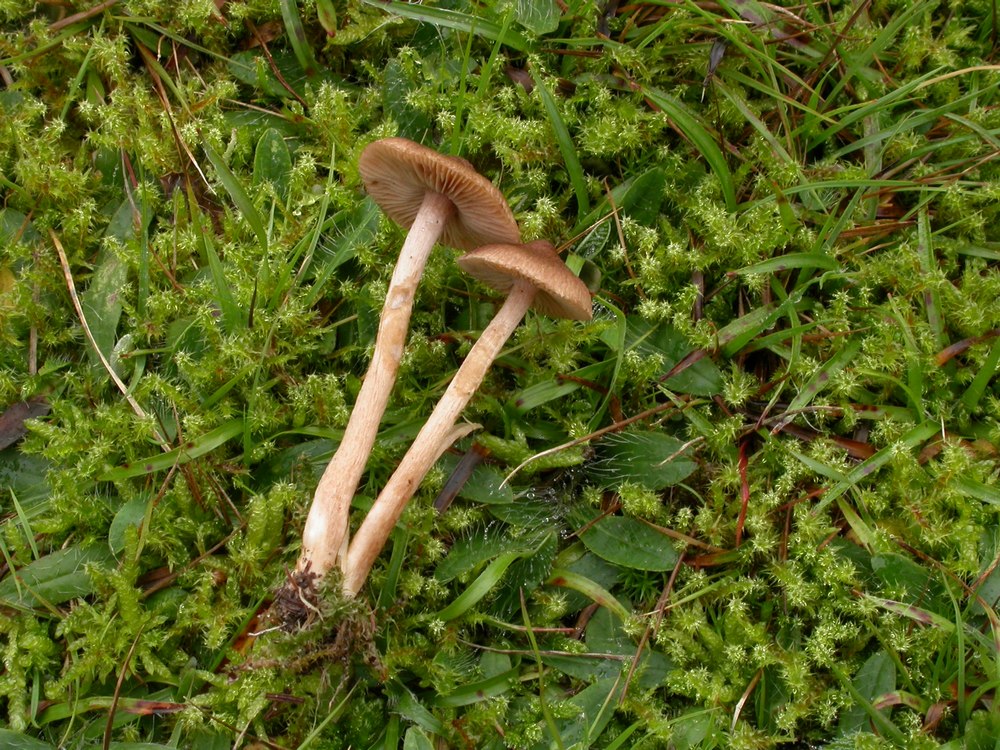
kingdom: Fungi
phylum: Basidiomycota
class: Agaricomycetes
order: Agaricales
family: Inocybaceae
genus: Inocybe
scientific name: Inocybe
